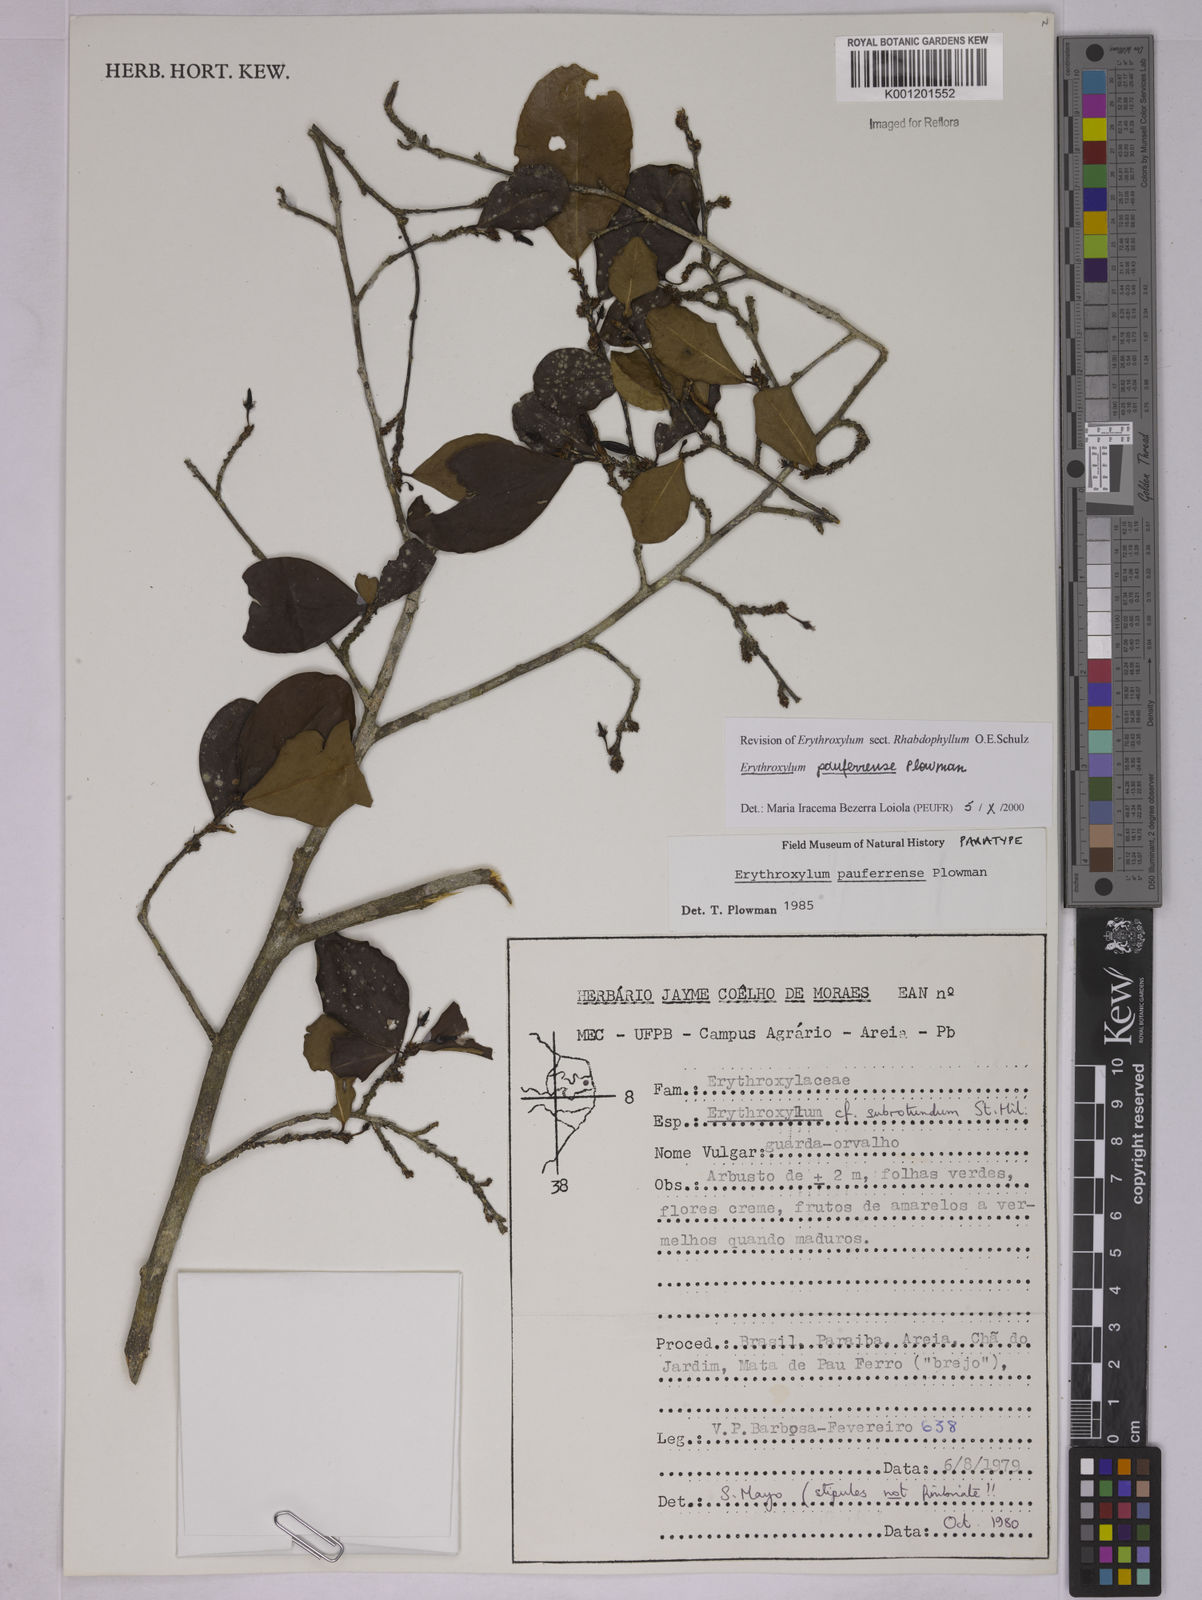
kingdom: Plantae
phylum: Tracheophyta
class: Magnoliopsida
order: Malpighiales
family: Erythroxylaceae
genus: Erythroxylum
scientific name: Erythroxylum pauferrense
